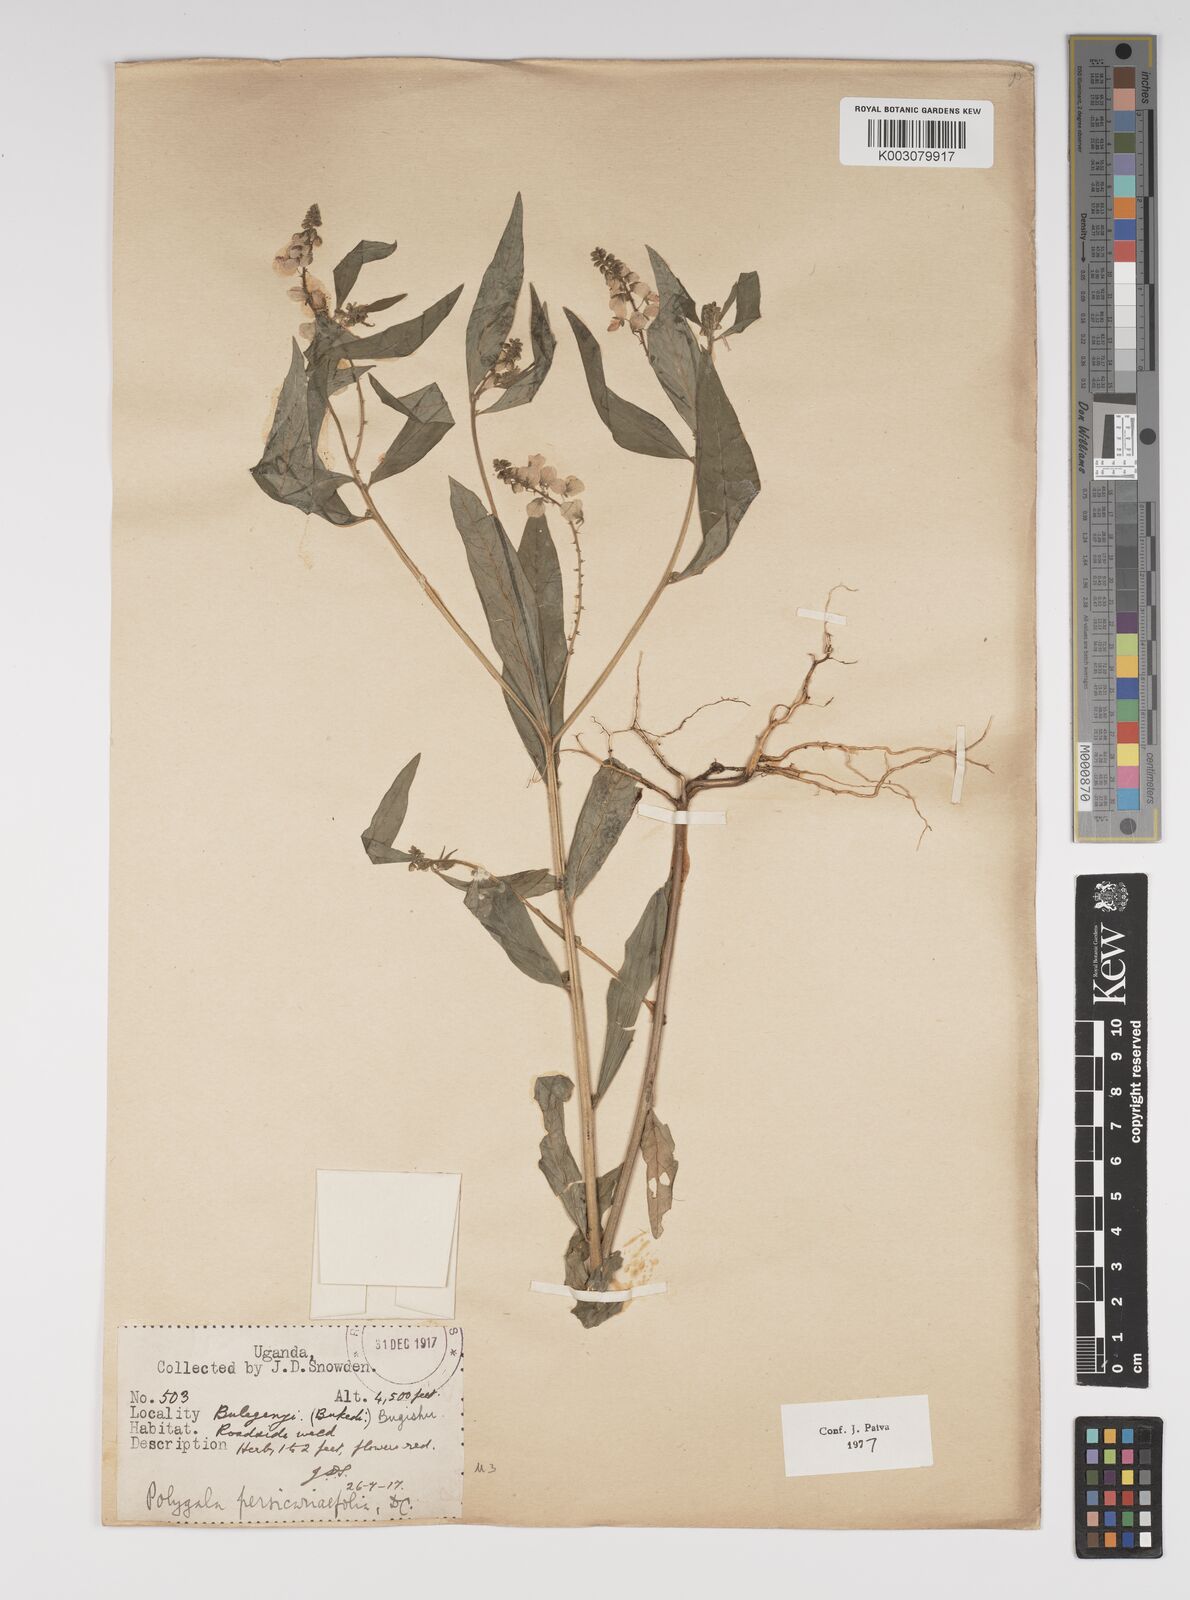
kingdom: Plantae
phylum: Tracheophyta
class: Magnoliopsida
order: Fabales
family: Polygalaceae
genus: Polygala
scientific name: Polygala persicariifolia
